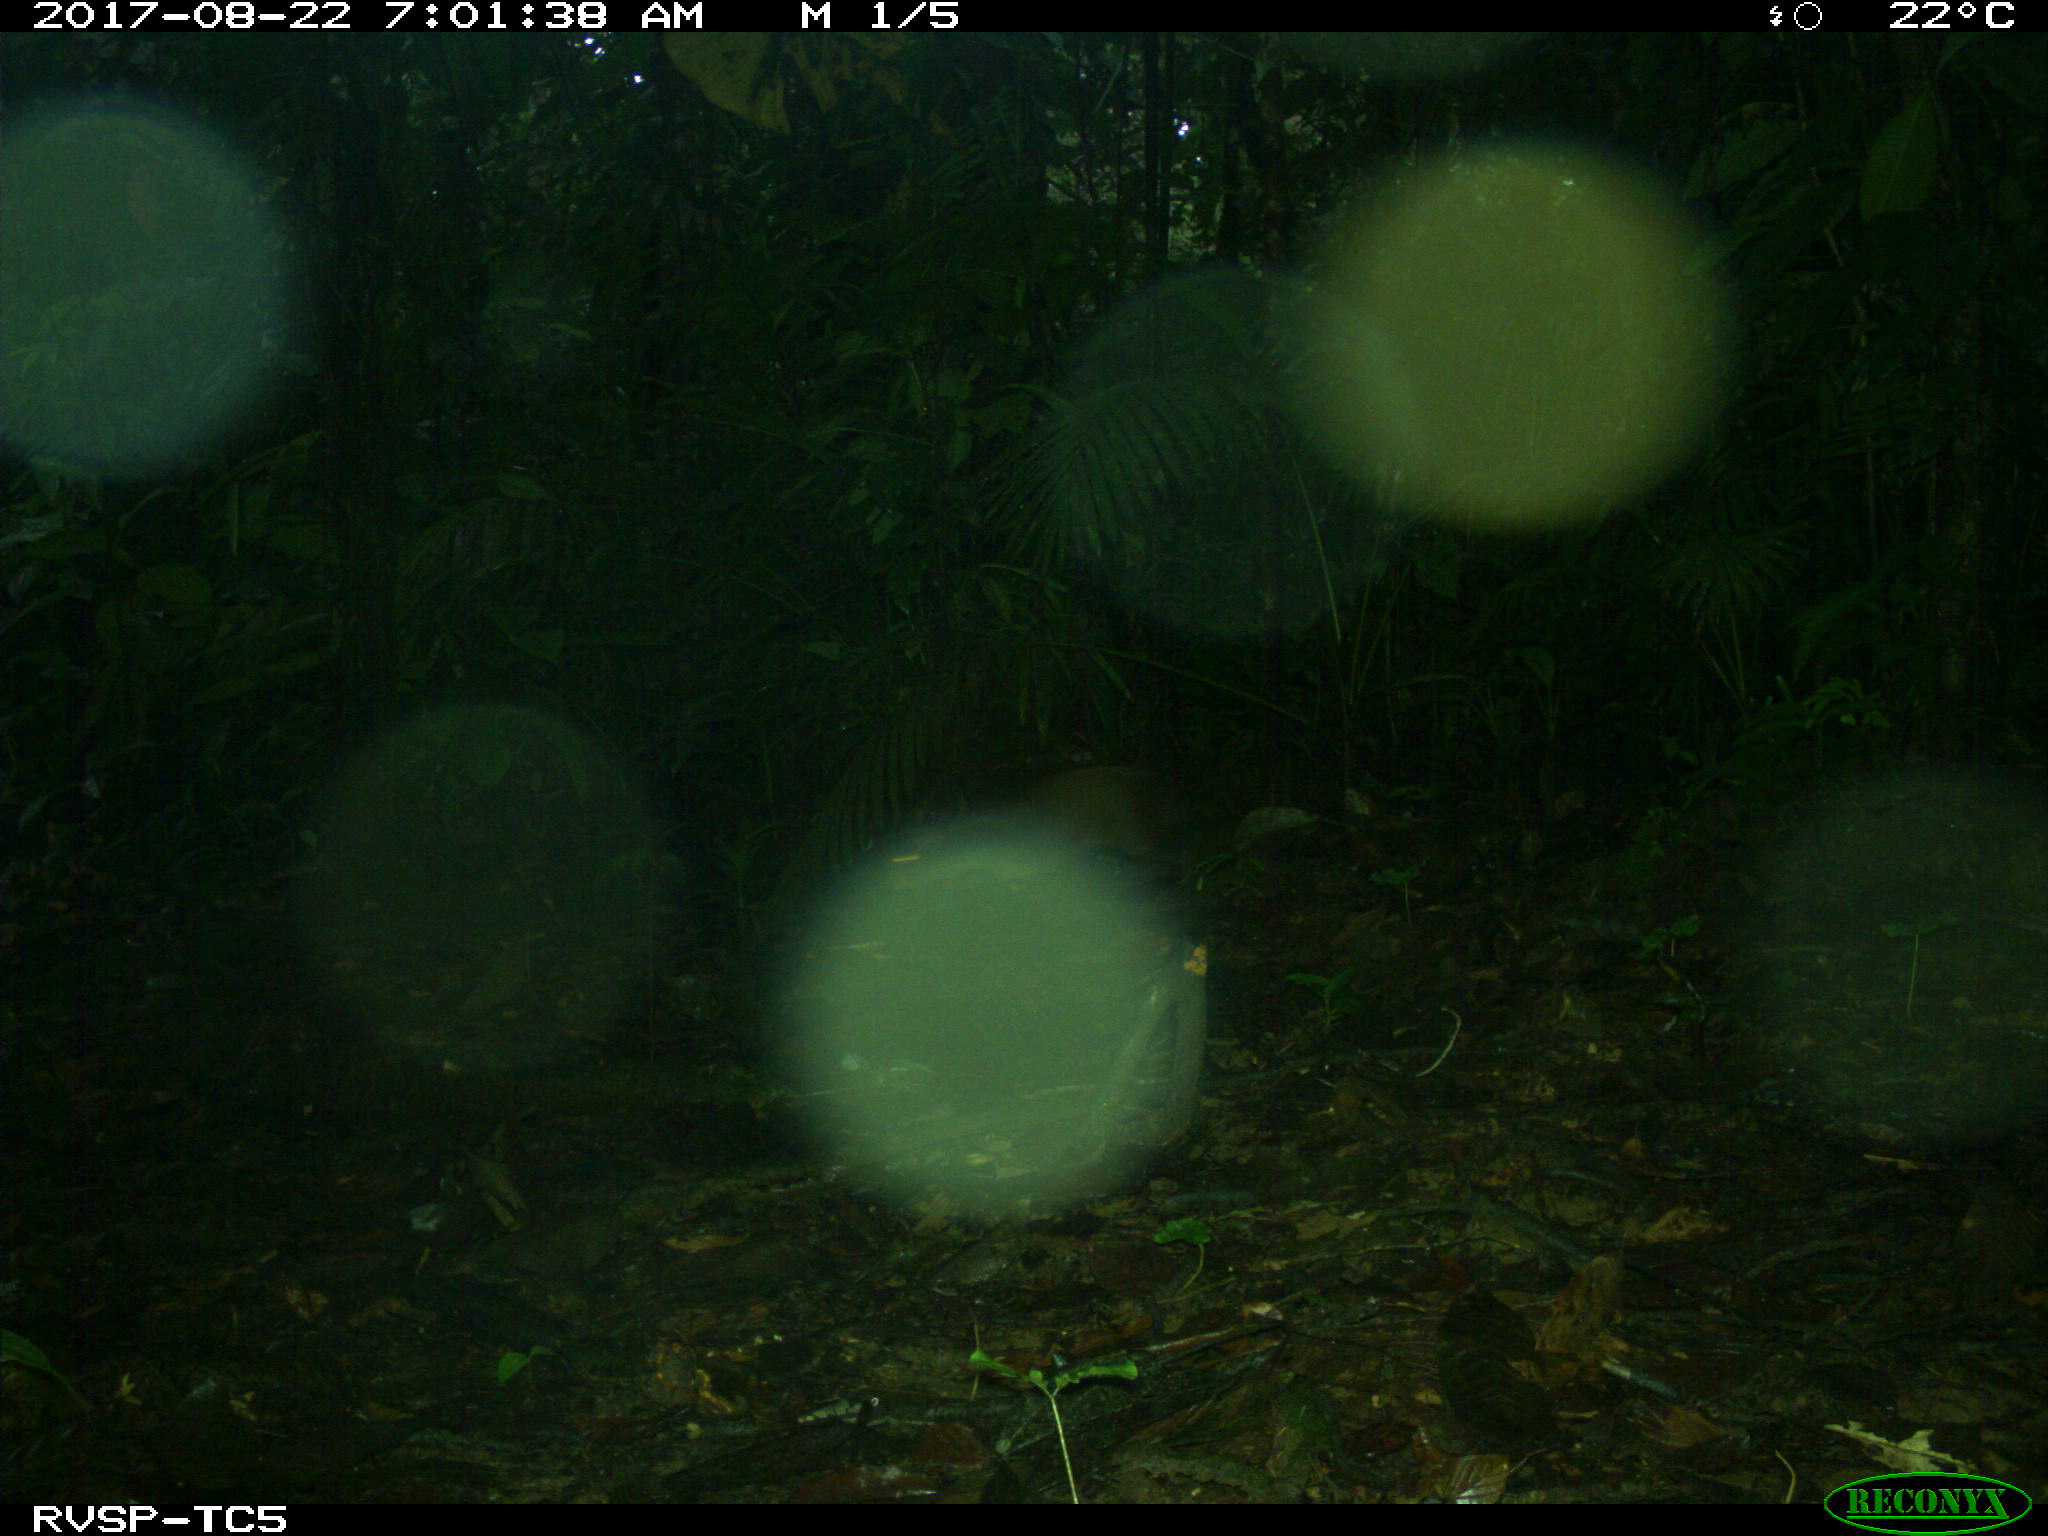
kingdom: Animalia
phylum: Chordata
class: Mammalia
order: Rodentia
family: Dasyproctidae
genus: Dasyprocta
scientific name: Dasyprocta punctata
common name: Central american agouti
